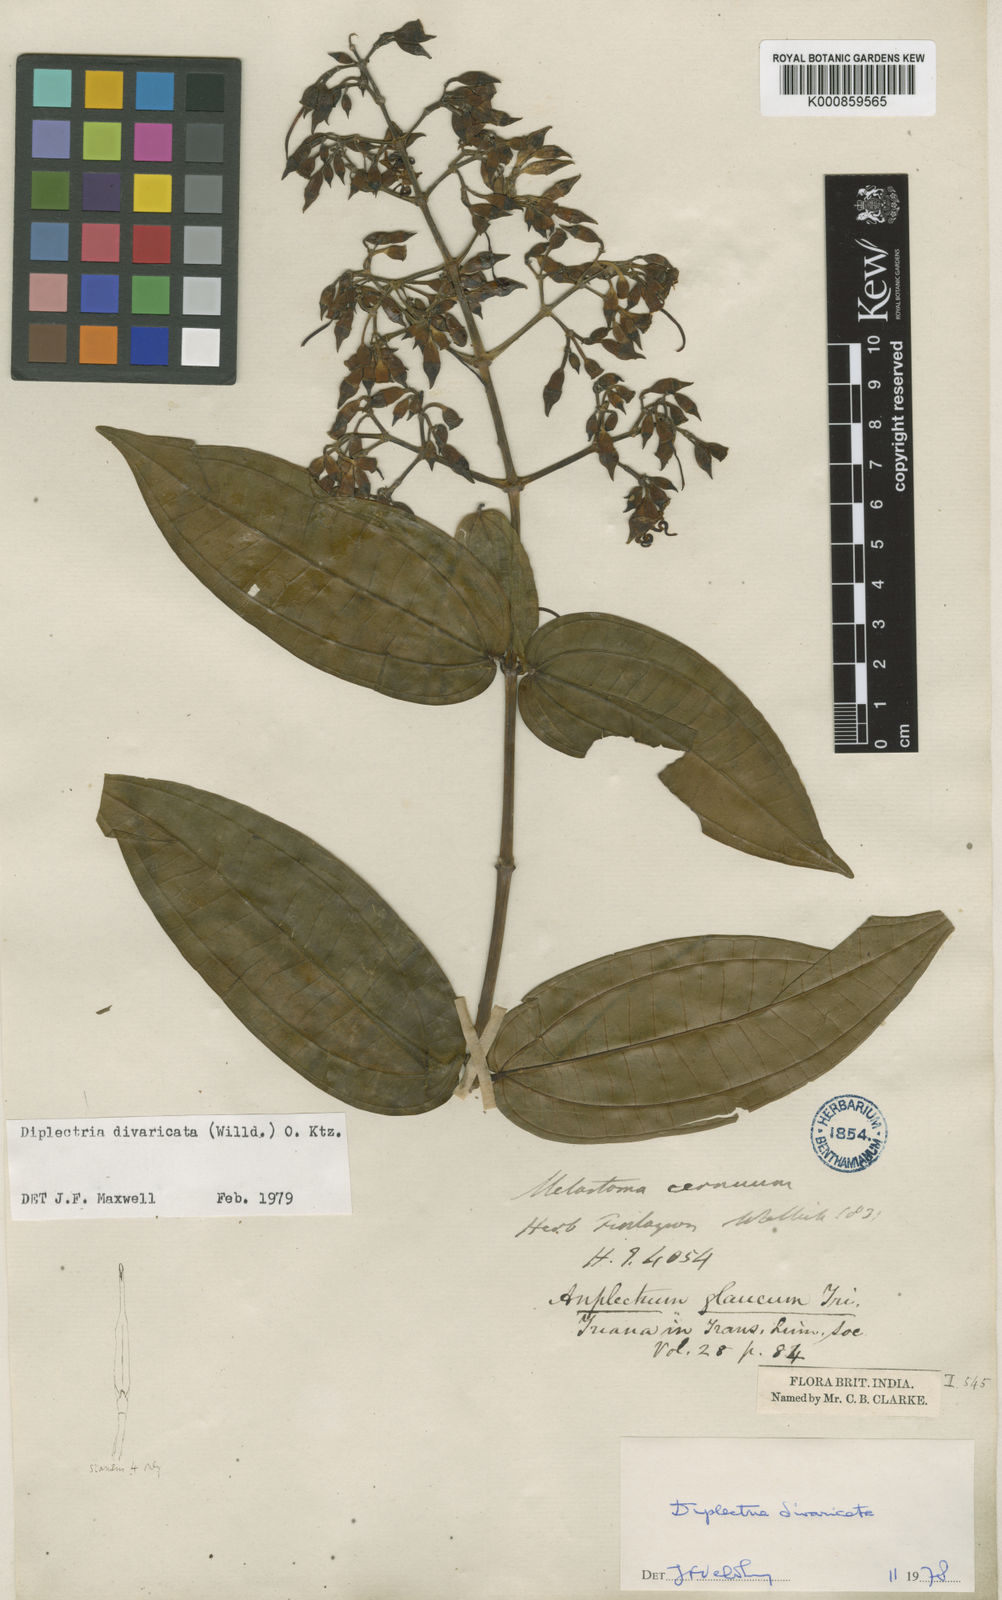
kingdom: Plantae
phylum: Tracheophyta
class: Magnoliopsida
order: Myrtales
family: Melastomataceae
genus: Diplectria
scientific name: Diplectria divaricata
